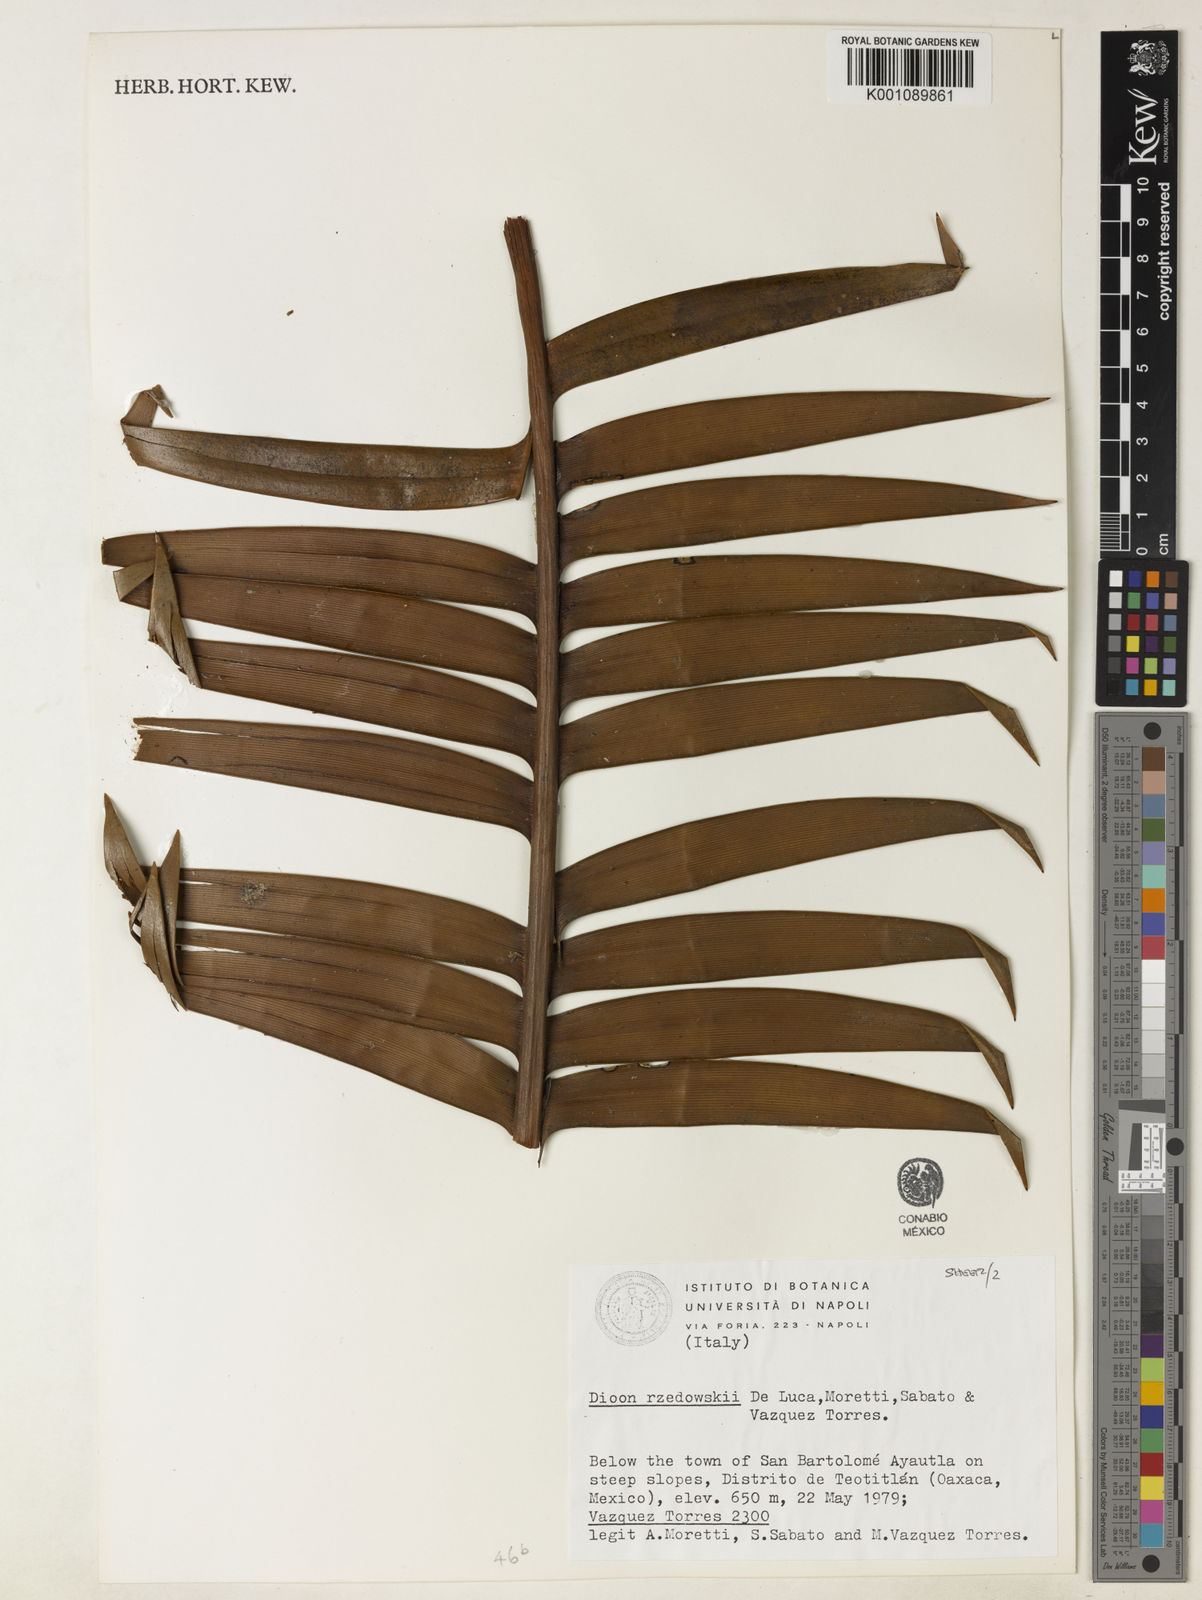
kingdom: Plantae
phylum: Tracheophyta
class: Cycadopsida
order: Cycadales
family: Zamiaceae
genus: Dioon
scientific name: Dioon rzedowskii
